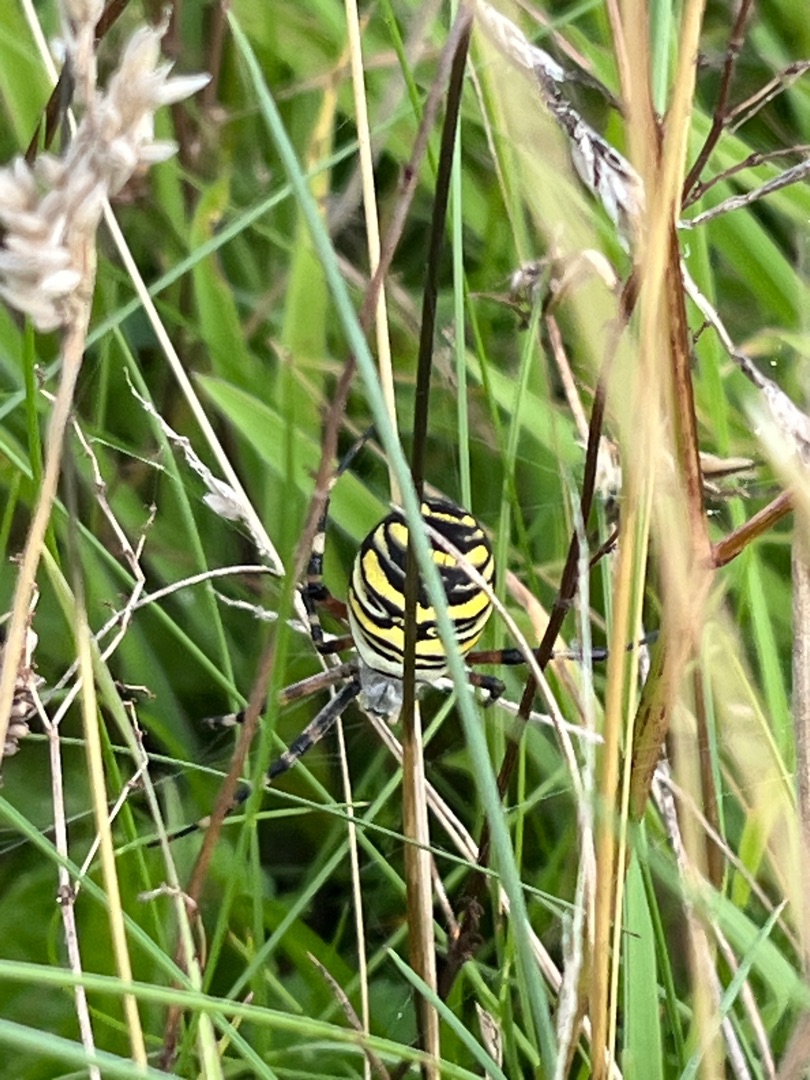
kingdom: Animalia
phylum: Arthropoda
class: Arachnida
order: Araneae
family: Araneidae
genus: Argiope
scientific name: Argiope bruennichi
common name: Hvepseedderkop
